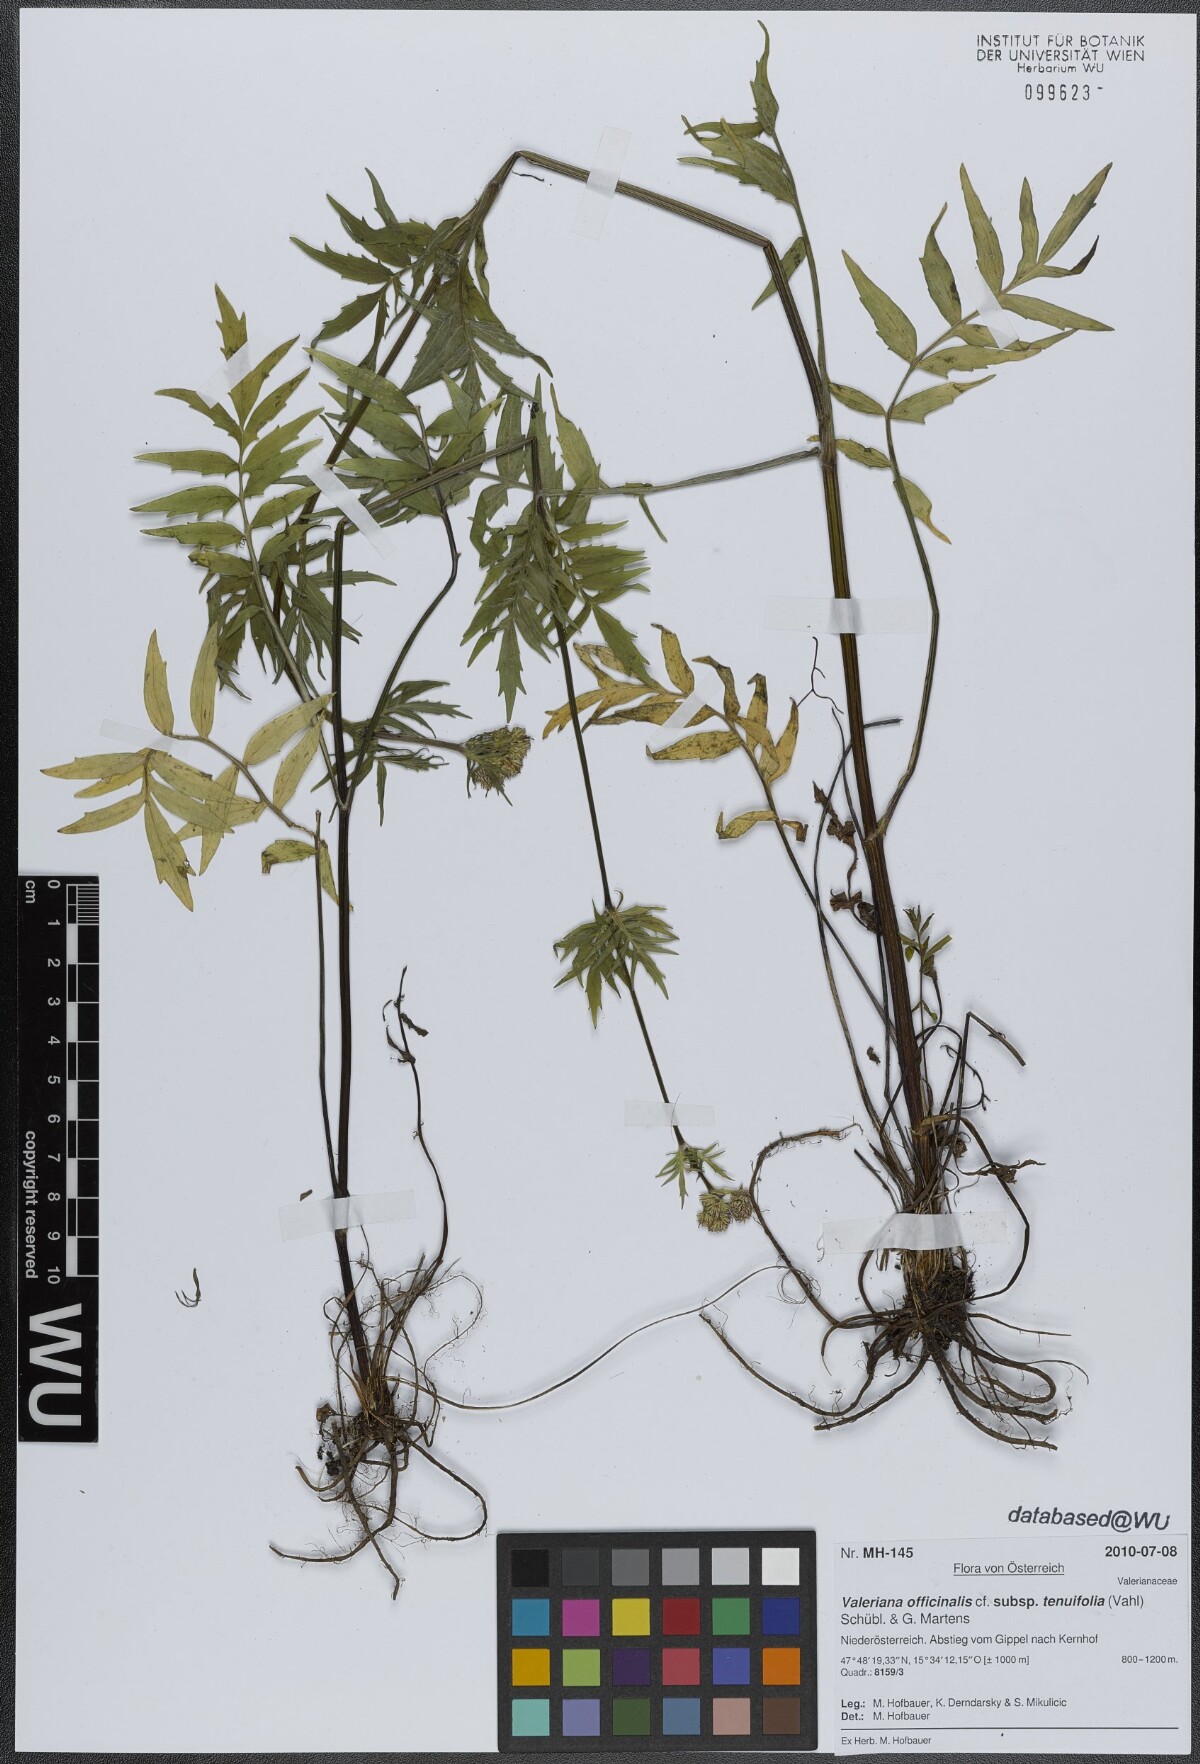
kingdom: Plantae
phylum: Tracheophyta
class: Magnoliopsida
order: Dipsacales
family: Caprifoliaceae
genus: Valeriana
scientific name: Valeriana officinalis
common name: Common valerian
